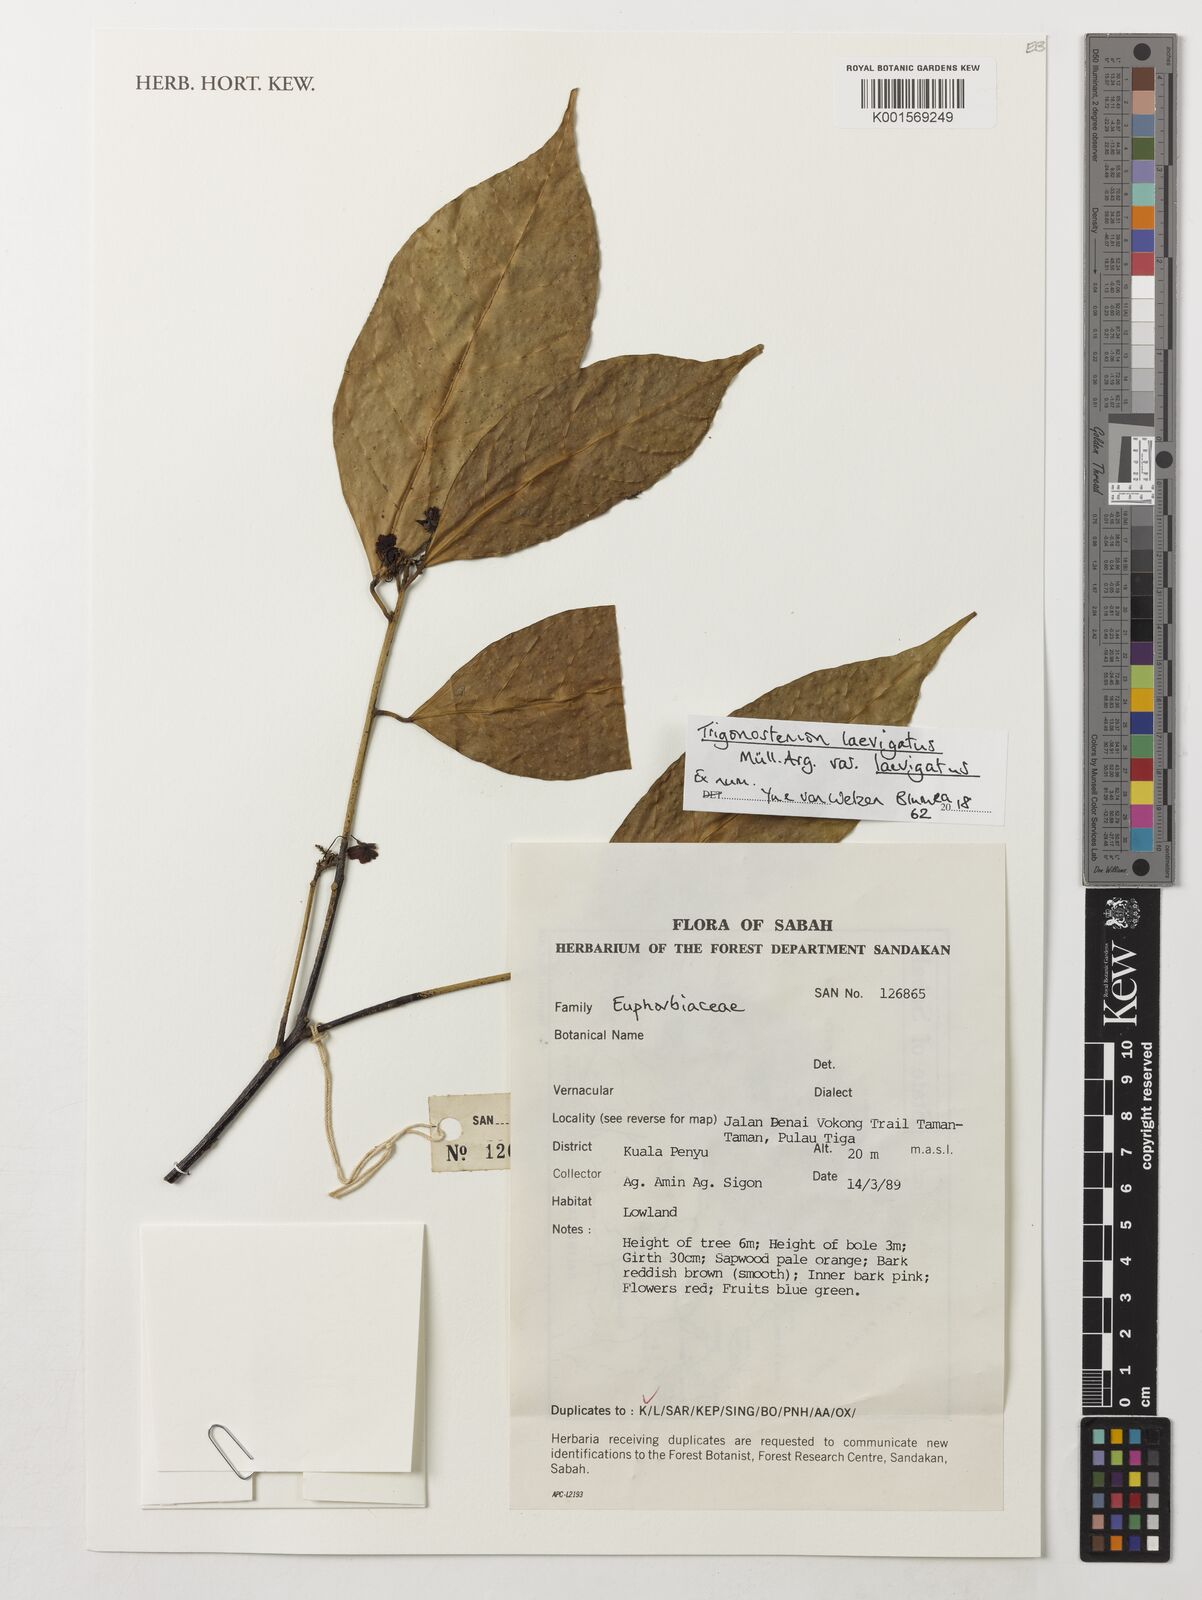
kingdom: Plantae
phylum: Tracheophyta
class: Magnoliopsida
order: Malpighiales
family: Euphorbiaceae
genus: Trigonostemon
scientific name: Trigonostemon laevigatus
